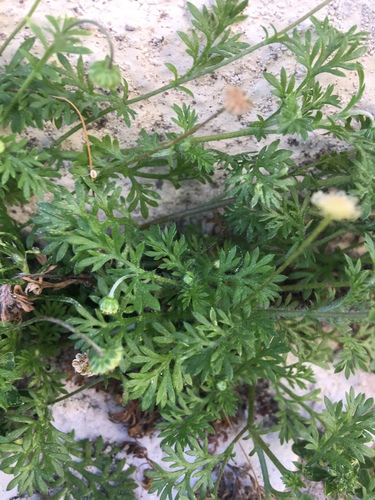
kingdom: Plantae
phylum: Tracheophyta
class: Magnoliopsida
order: Asterales
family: Asteraceae
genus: Cotula
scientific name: Cotula australis
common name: Australian waterbuttons
